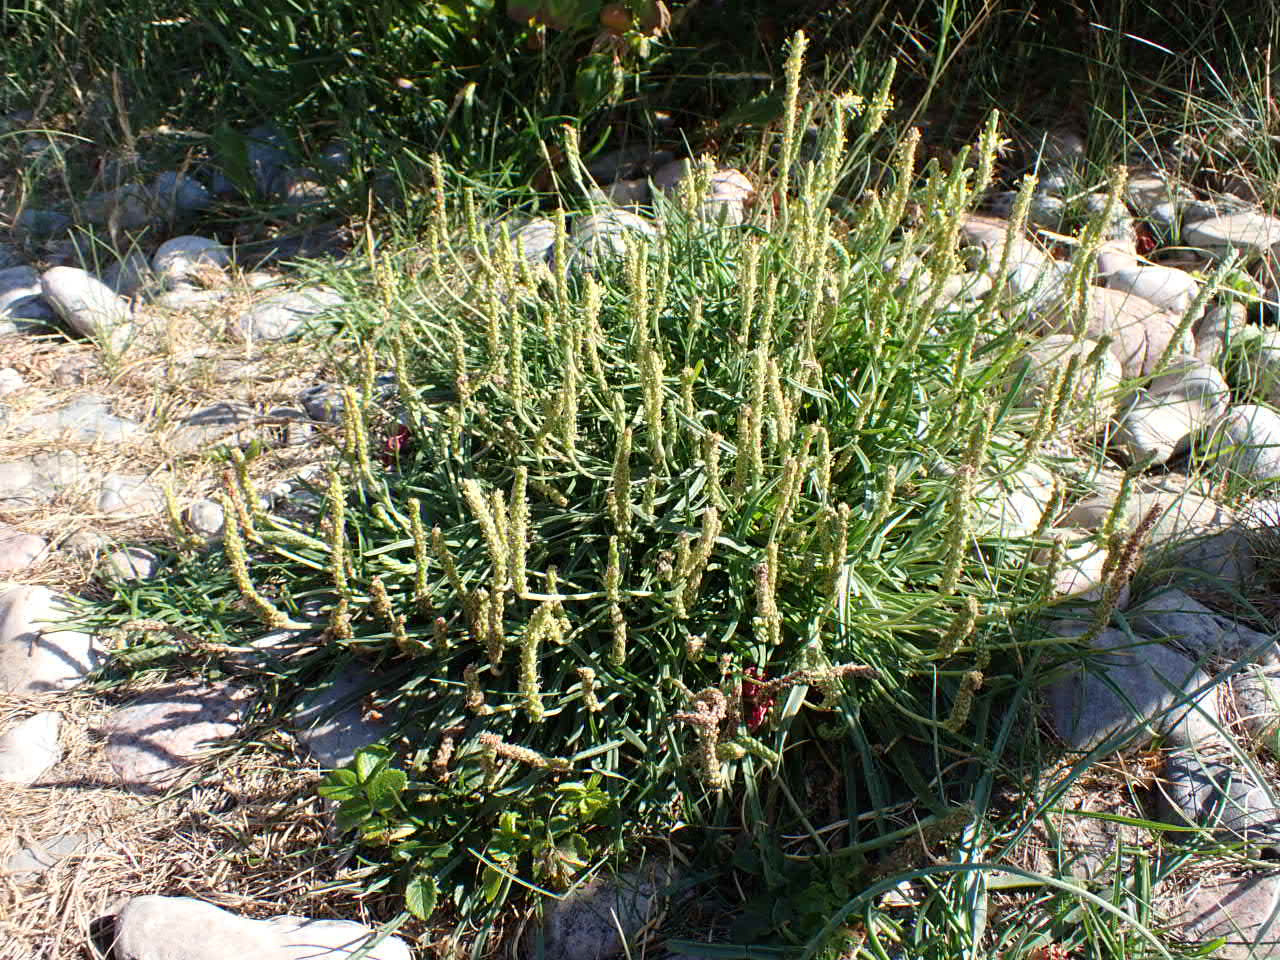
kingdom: Plantae
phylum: Tracheophyta
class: Magnoliopsida
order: Lamiales
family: Plantaginaceae
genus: Plantago
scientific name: Plantago maritima
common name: Strand-vejbred
